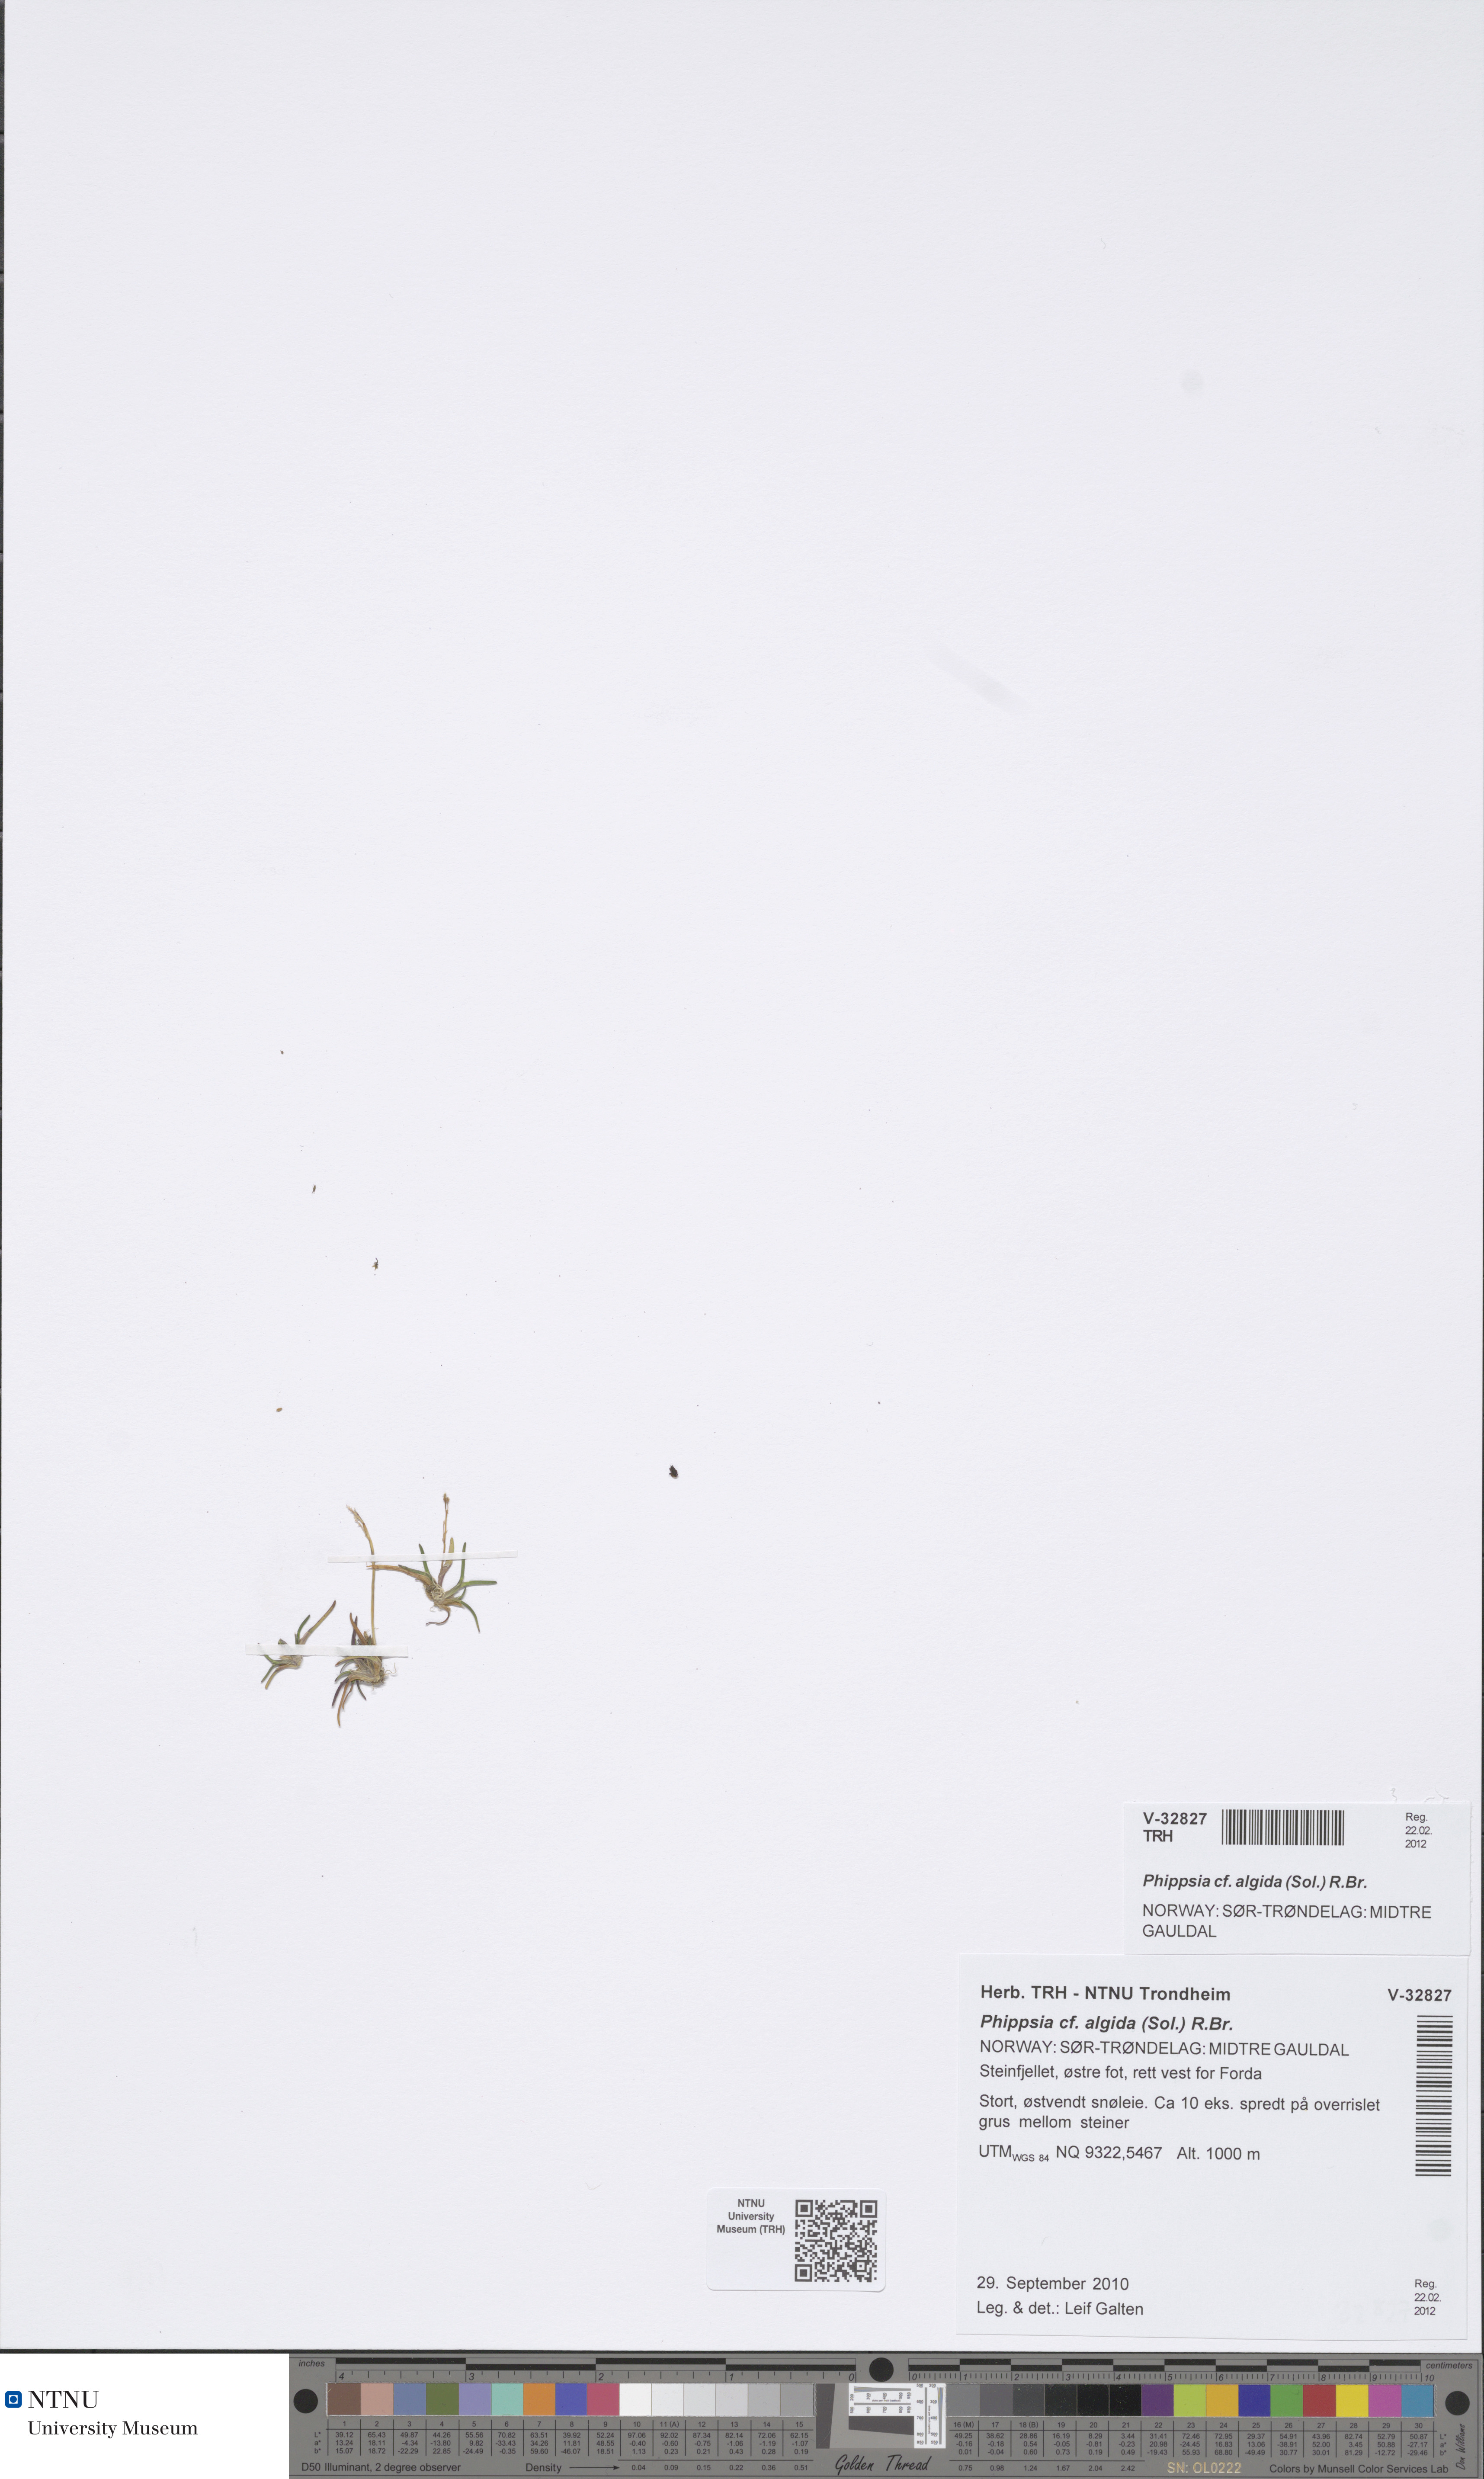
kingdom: Plantae
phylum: Tracheophyta
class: Liliopsida
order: Poales
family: Poaceae
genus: Phippsia
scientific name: Phippsia algida
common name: Ice grass
